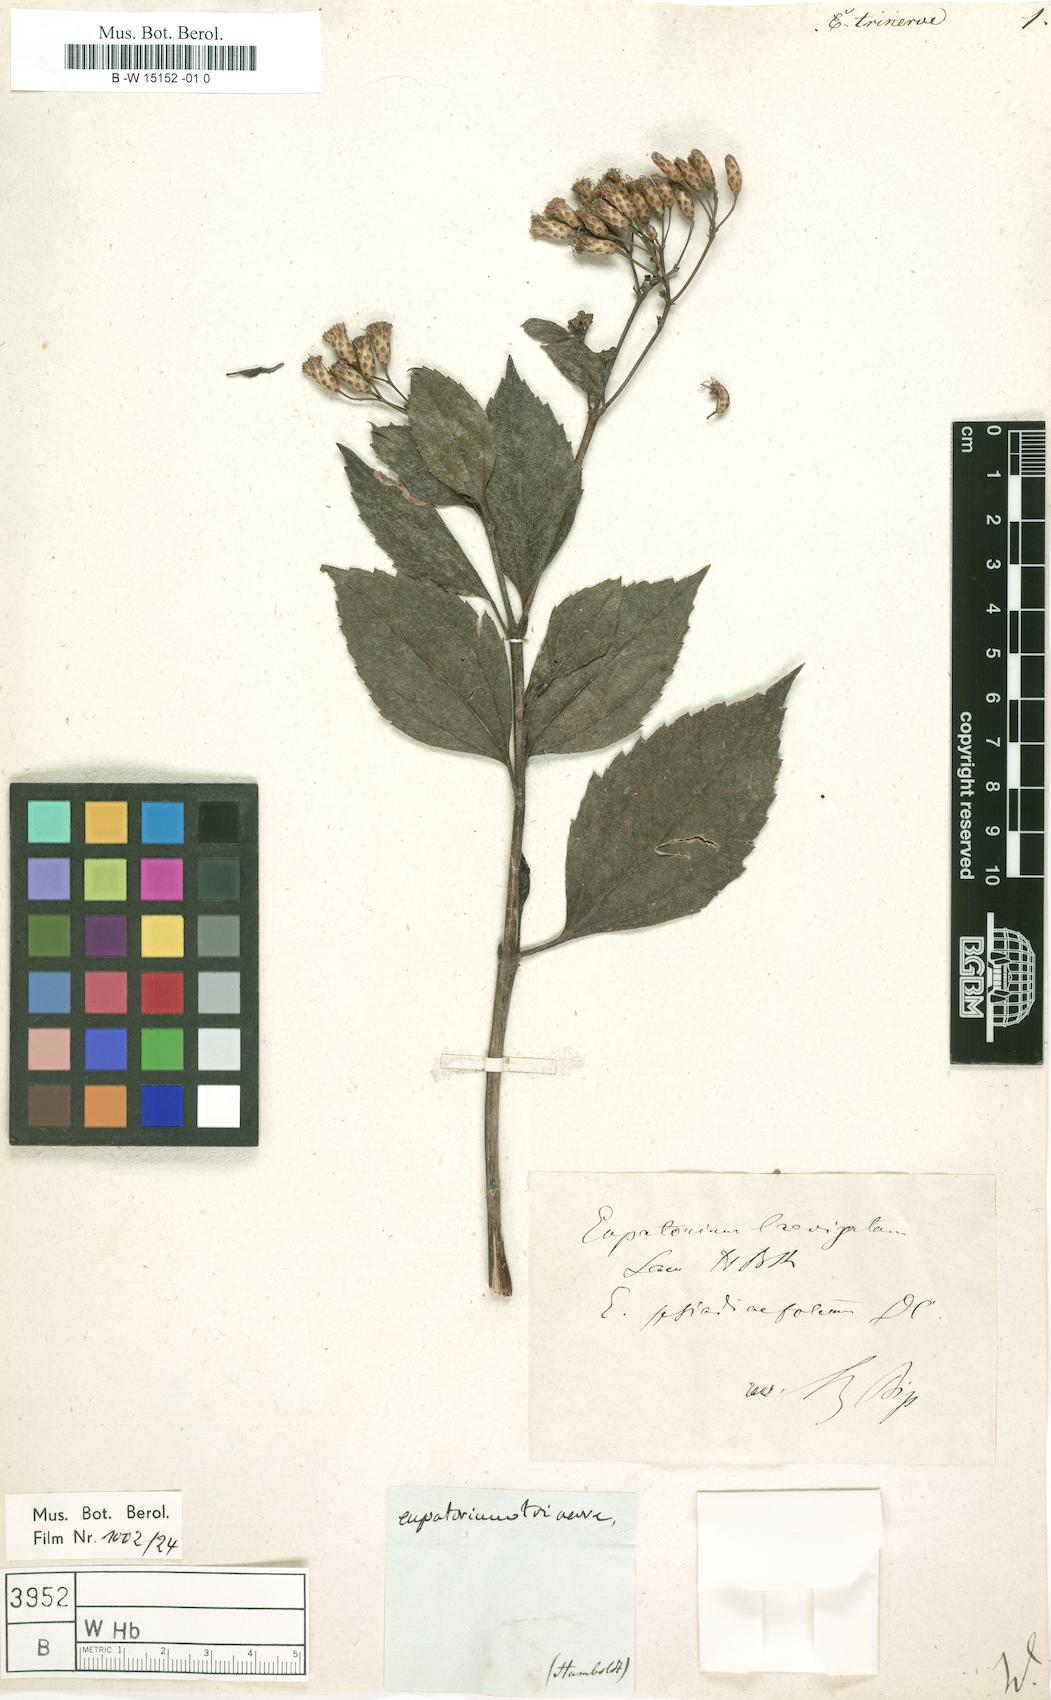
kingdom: Plantae
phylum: Tracheophyta
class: Magnoliopsida
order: Asterales
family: Asteraceae
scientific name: Asteraceae
